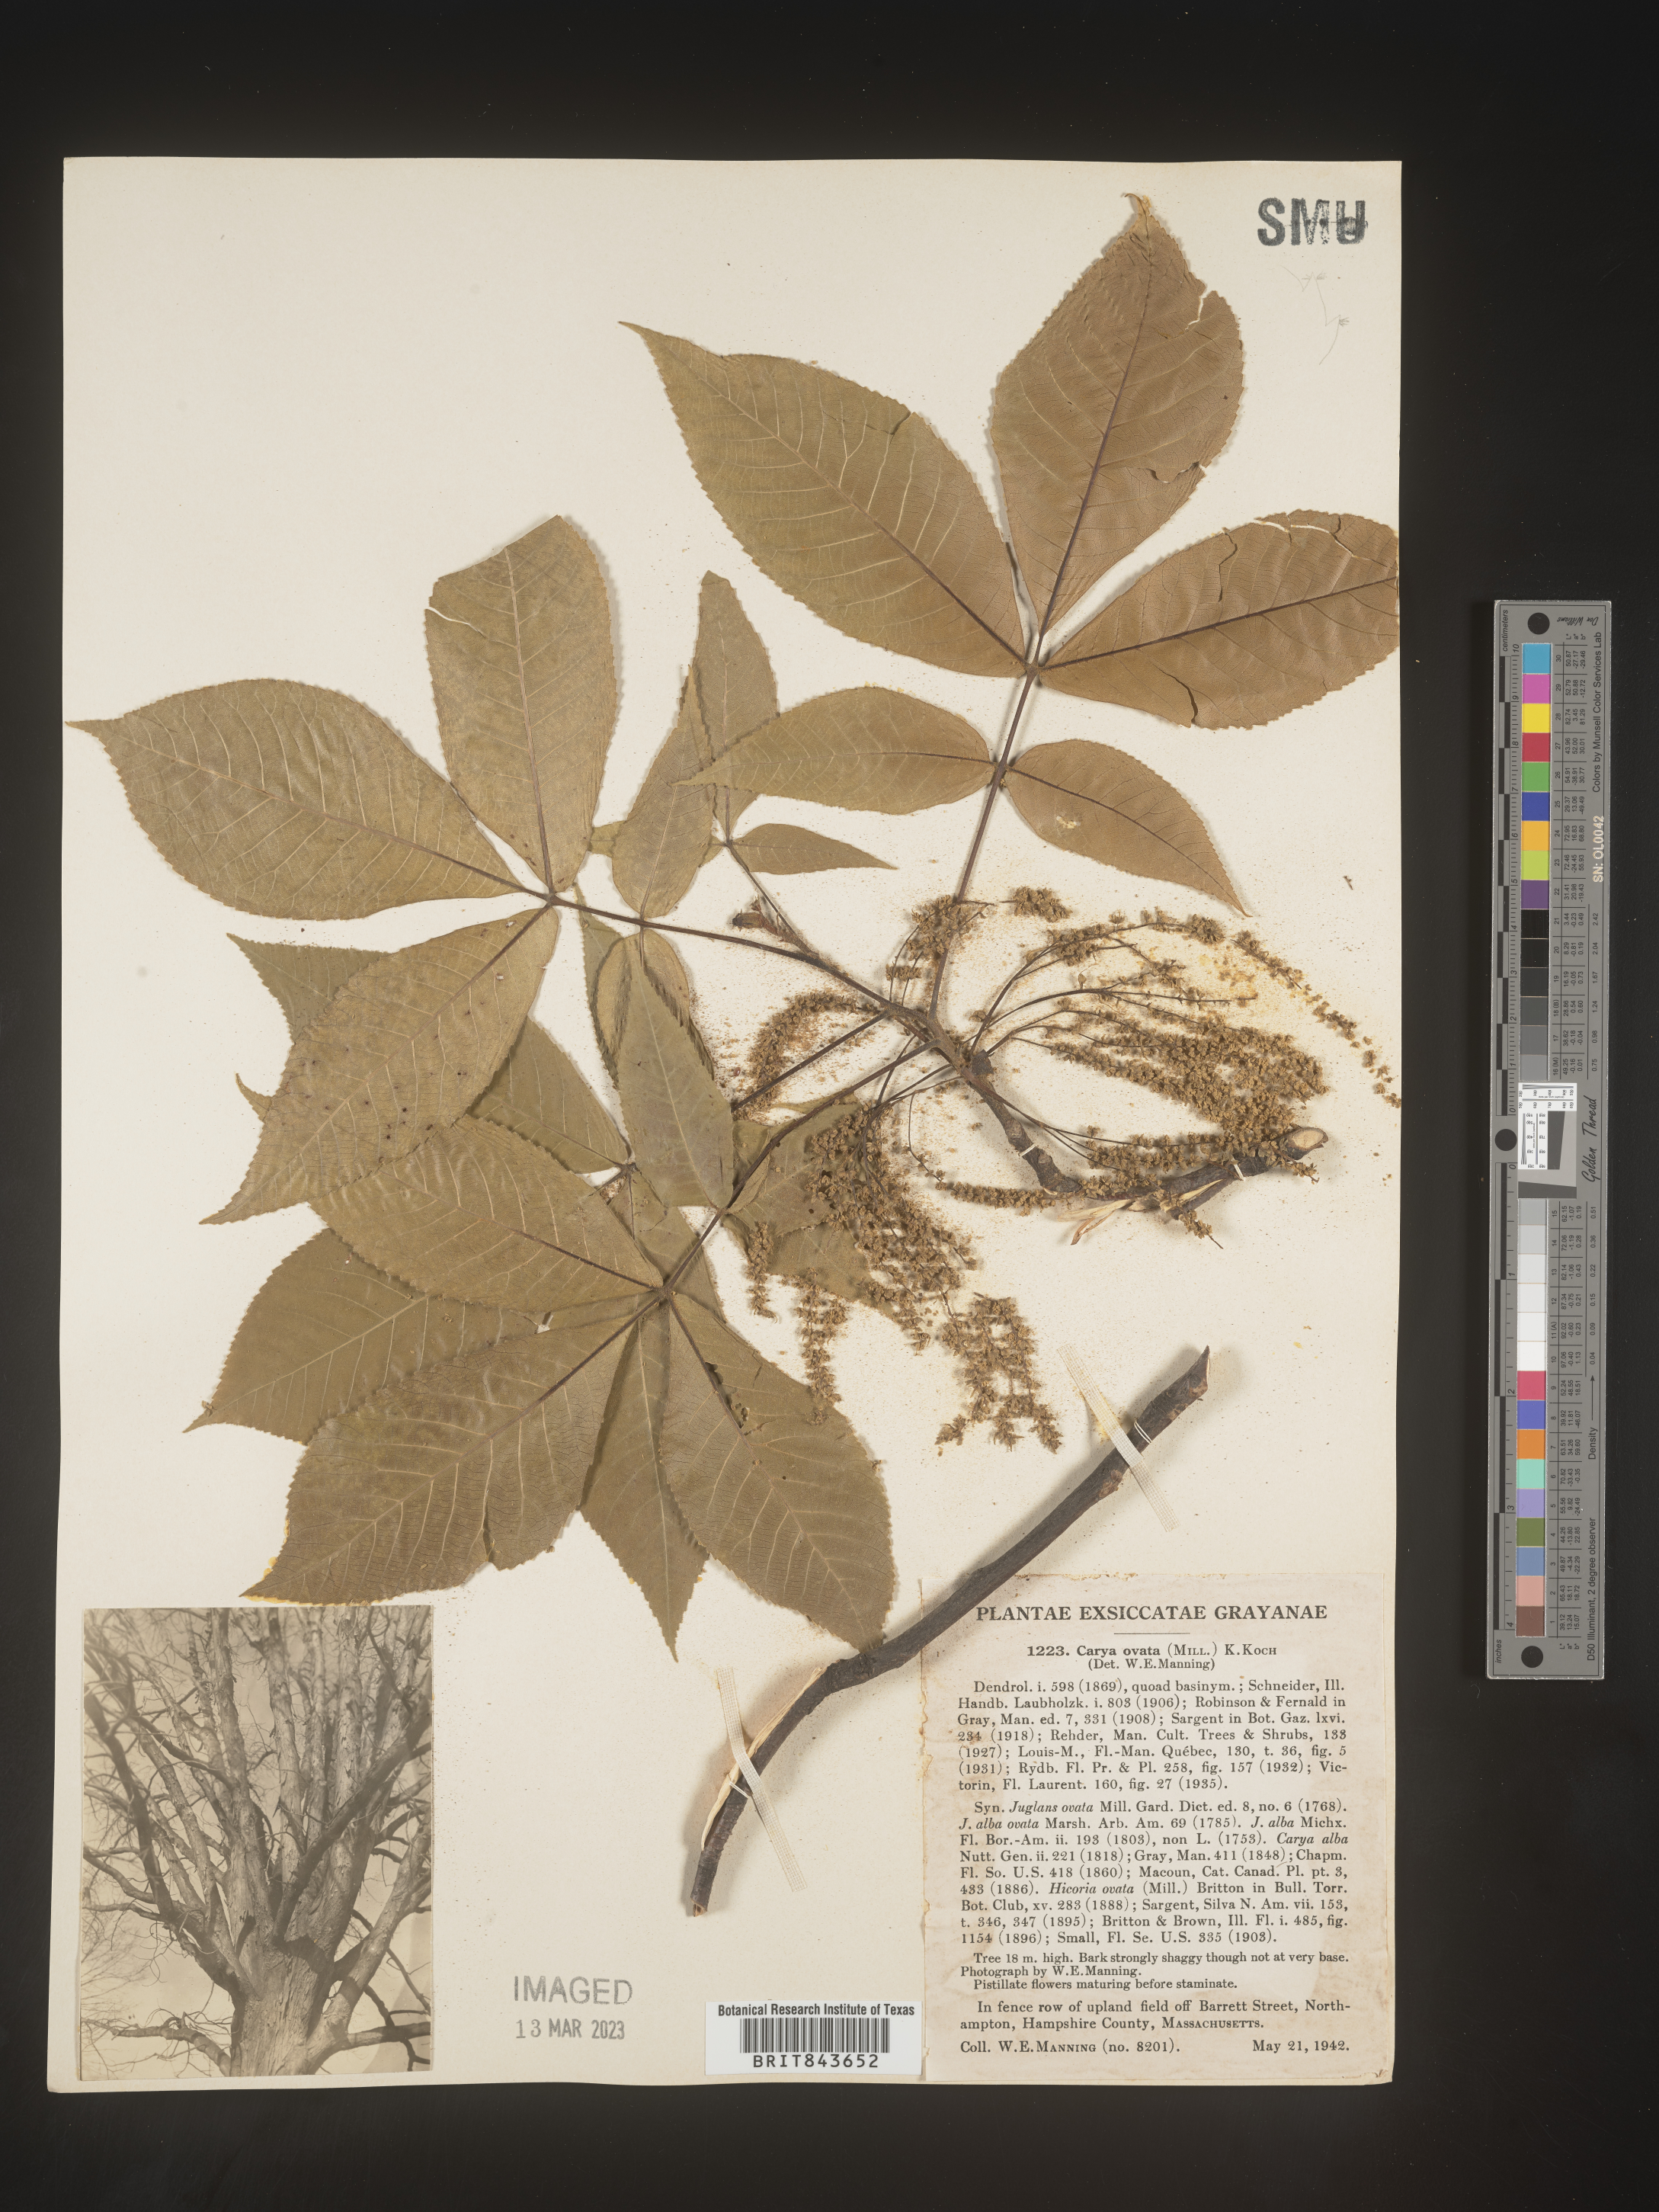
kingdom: Plantae
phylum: Tracheophyta
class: Magnoliopsida
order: Fagales
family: Juglandaceae
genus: Carya
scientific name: Carya ovata
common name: Shagbark hickory
